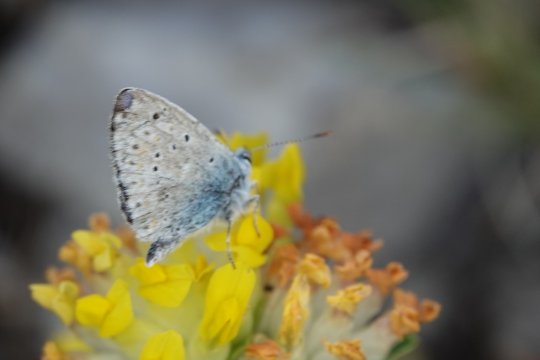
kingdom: Animalia
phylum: Arthropoda
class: Insecta
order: Lepidoptera
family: Lycaenidae
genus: Lysandra
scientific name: Lysandra coridon
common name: Chalkhill Blue
